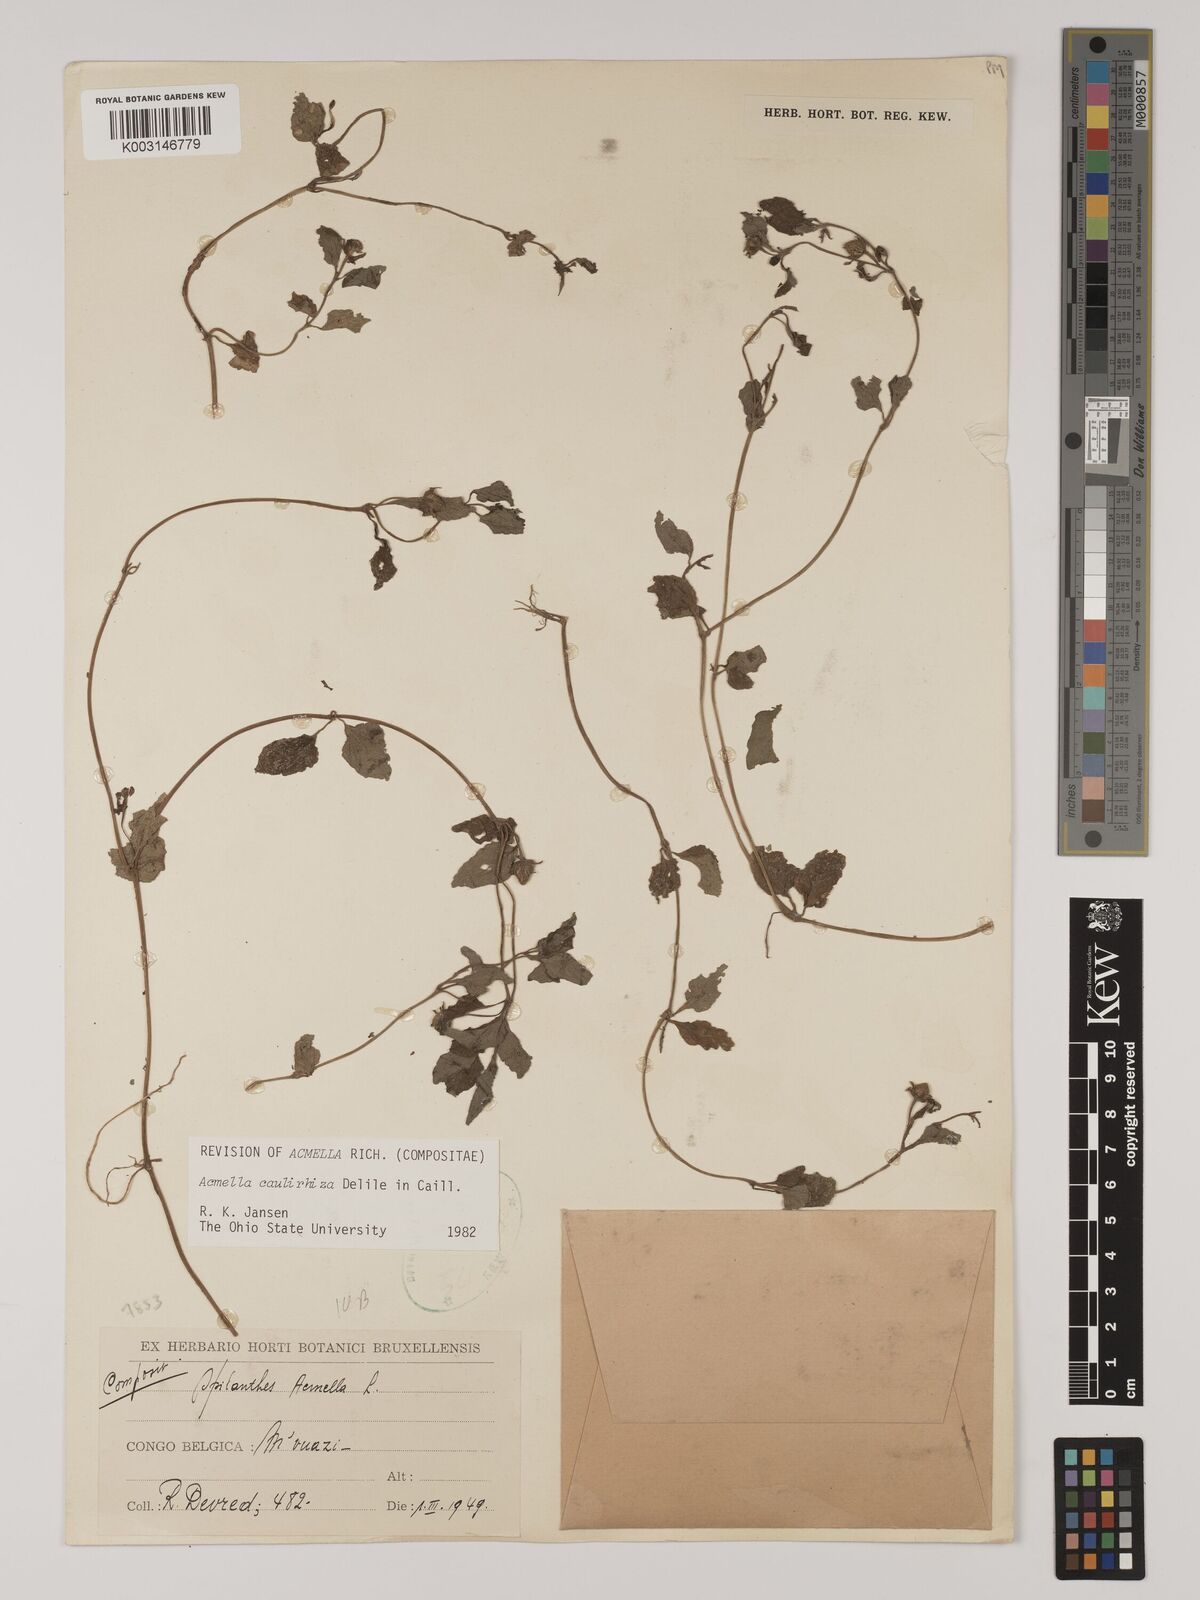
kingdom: Plantae
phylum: Tracheophyta
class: Magnoliopsida
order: Asterales
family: Asteraceae
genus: Acmella
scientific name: Acmella caulirhiza
